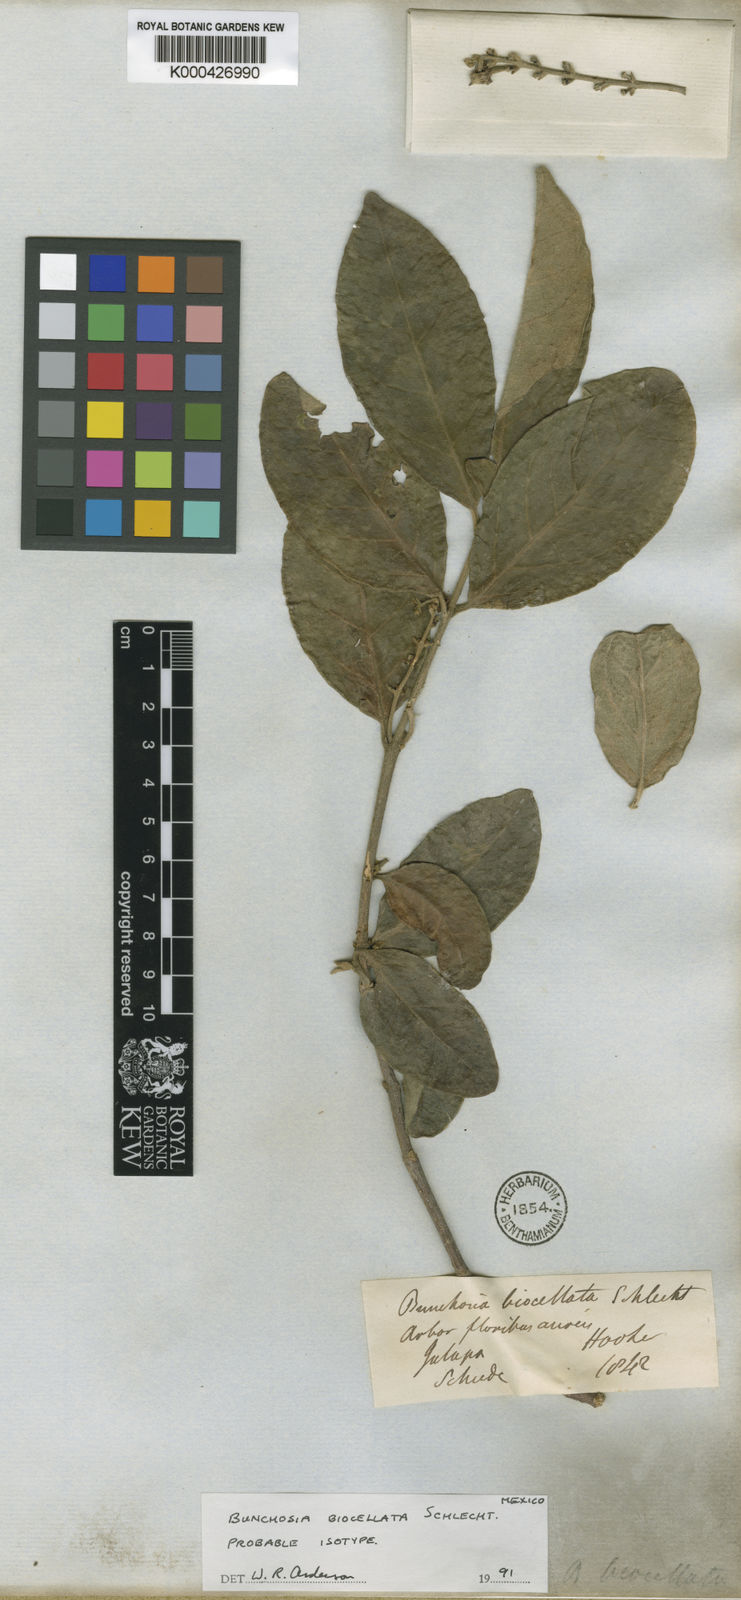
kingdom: Plantae
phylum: Tracheophyta
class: Magnoliopsida
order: Malpighiales
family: Malpighiaceae
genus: Bunchosia
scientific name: Bunchosia biocellata
